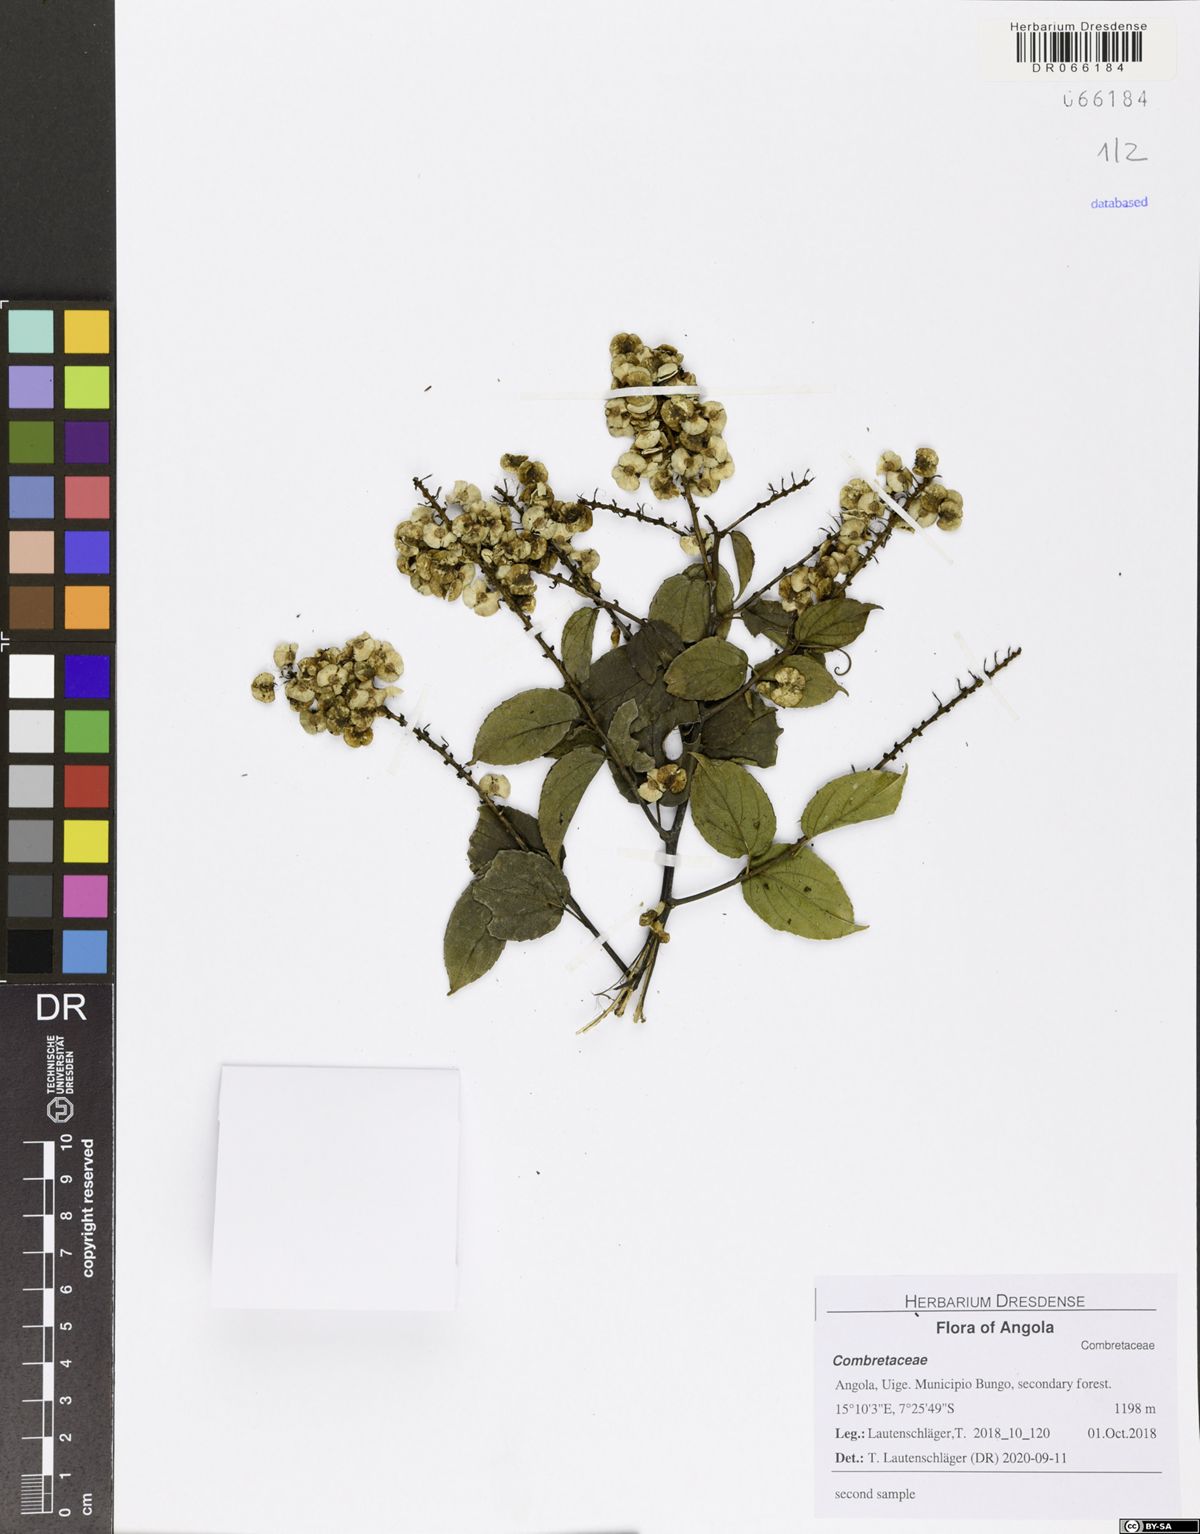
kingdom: Plantae
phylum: Tracheophyta
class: Magnoliopsida
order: Myrtales
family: Combretaceae
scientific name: Combretaceae
